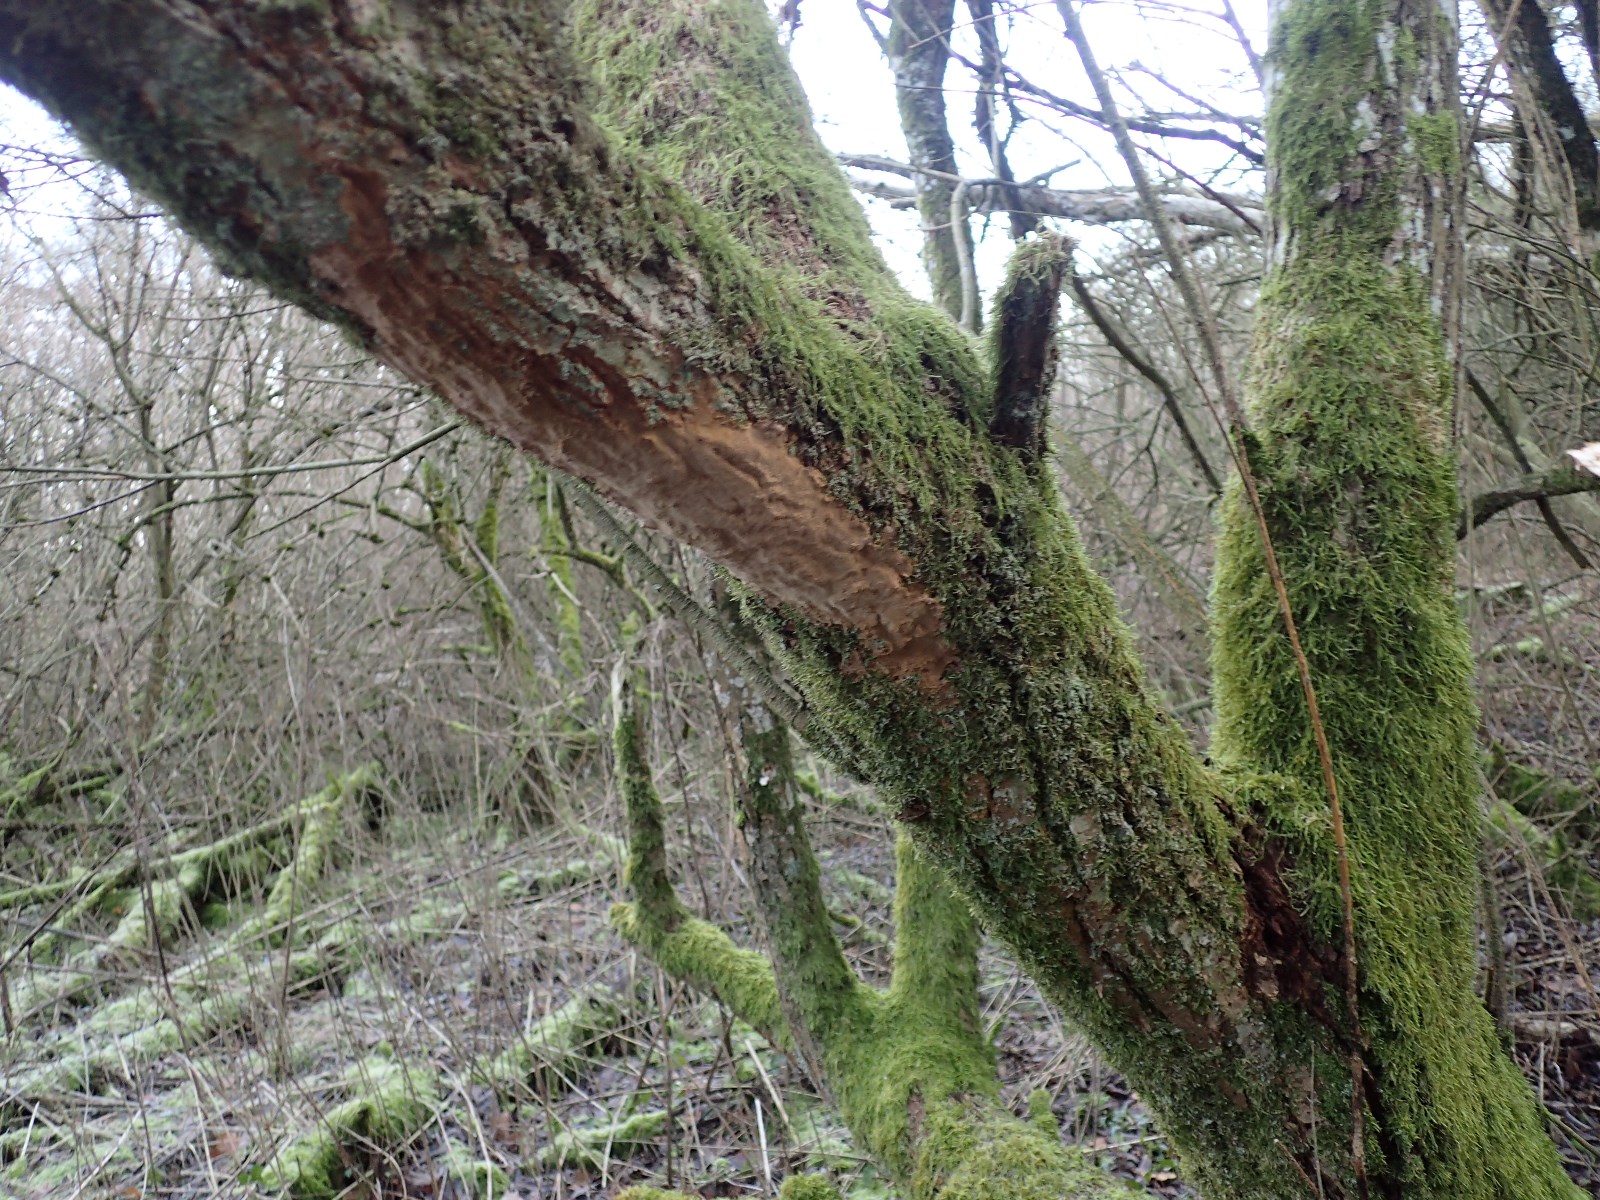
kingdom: Fungi
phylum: Basidiomycota
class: Agaricomycetes
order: Hymenochaetales
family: Hymenochaetaceae
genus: Fuscoporia
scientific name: Fuscoporia ferrea
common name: skorpe-ildporesvamp
